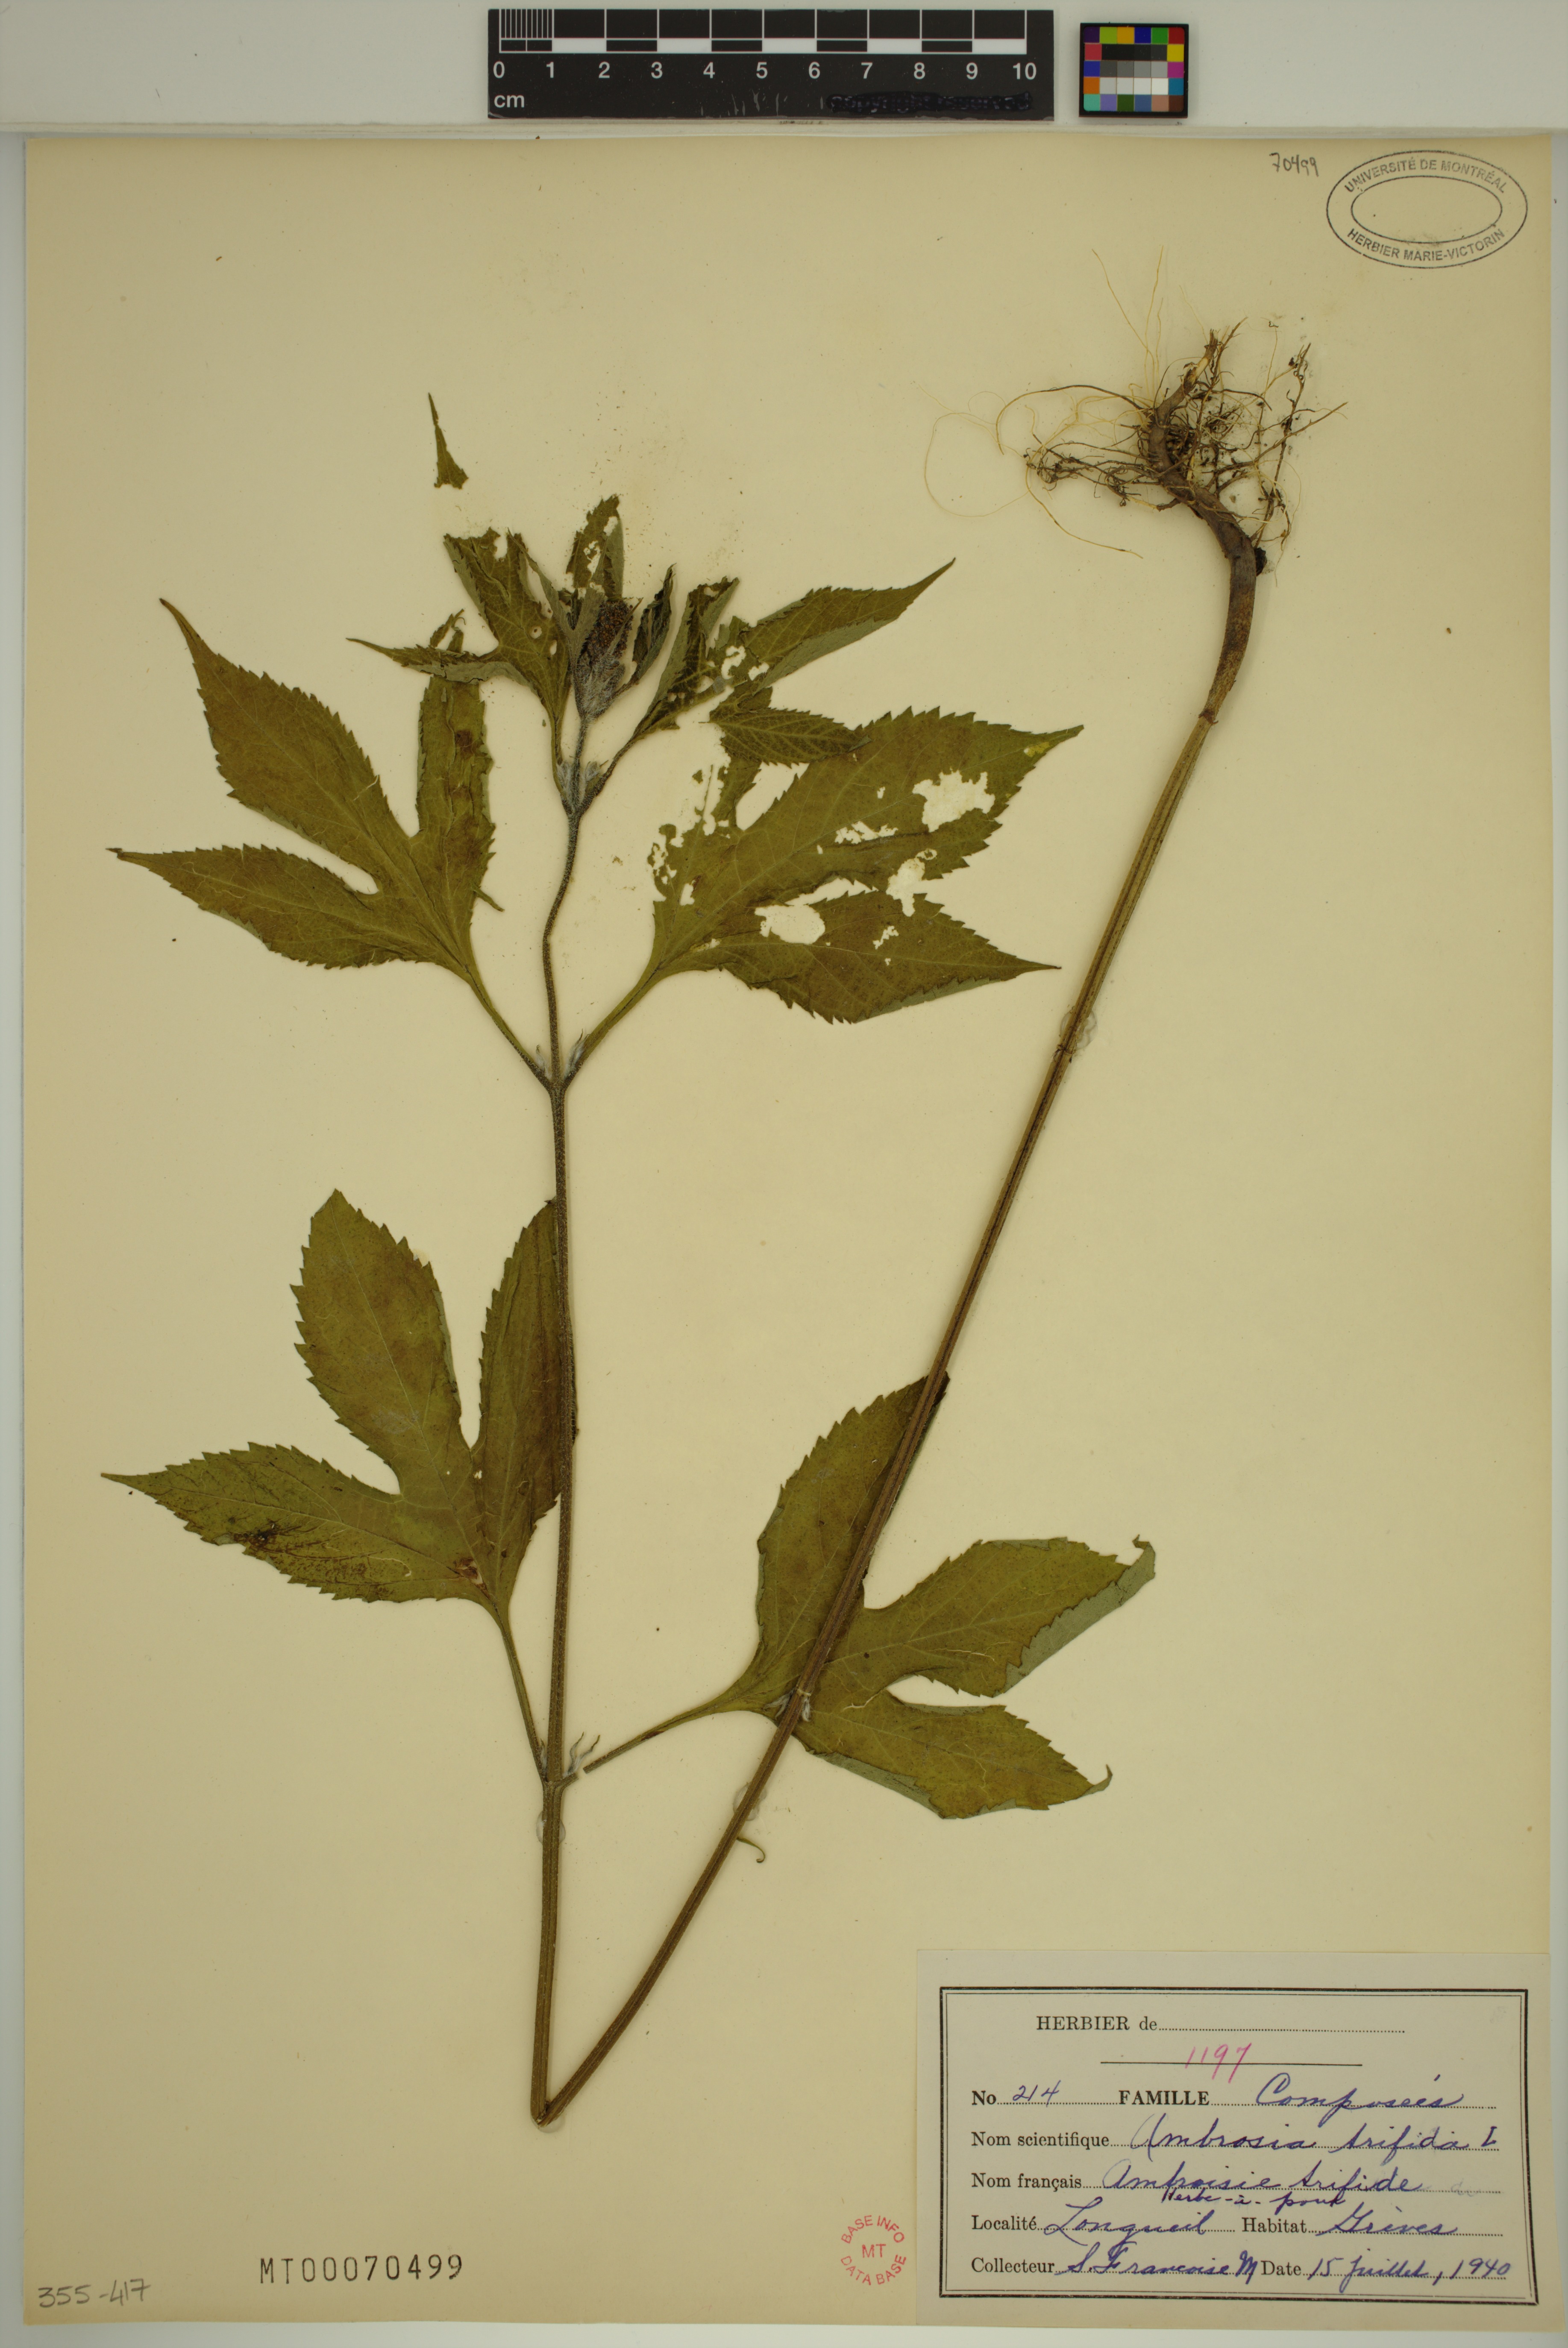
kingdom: Plantae
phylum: Tracheophyta
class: Magnoliopsida
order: Asterales
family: Asteraceae
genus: Ambrosia
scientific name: Ambrosia trifida
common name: Giant ragweed
